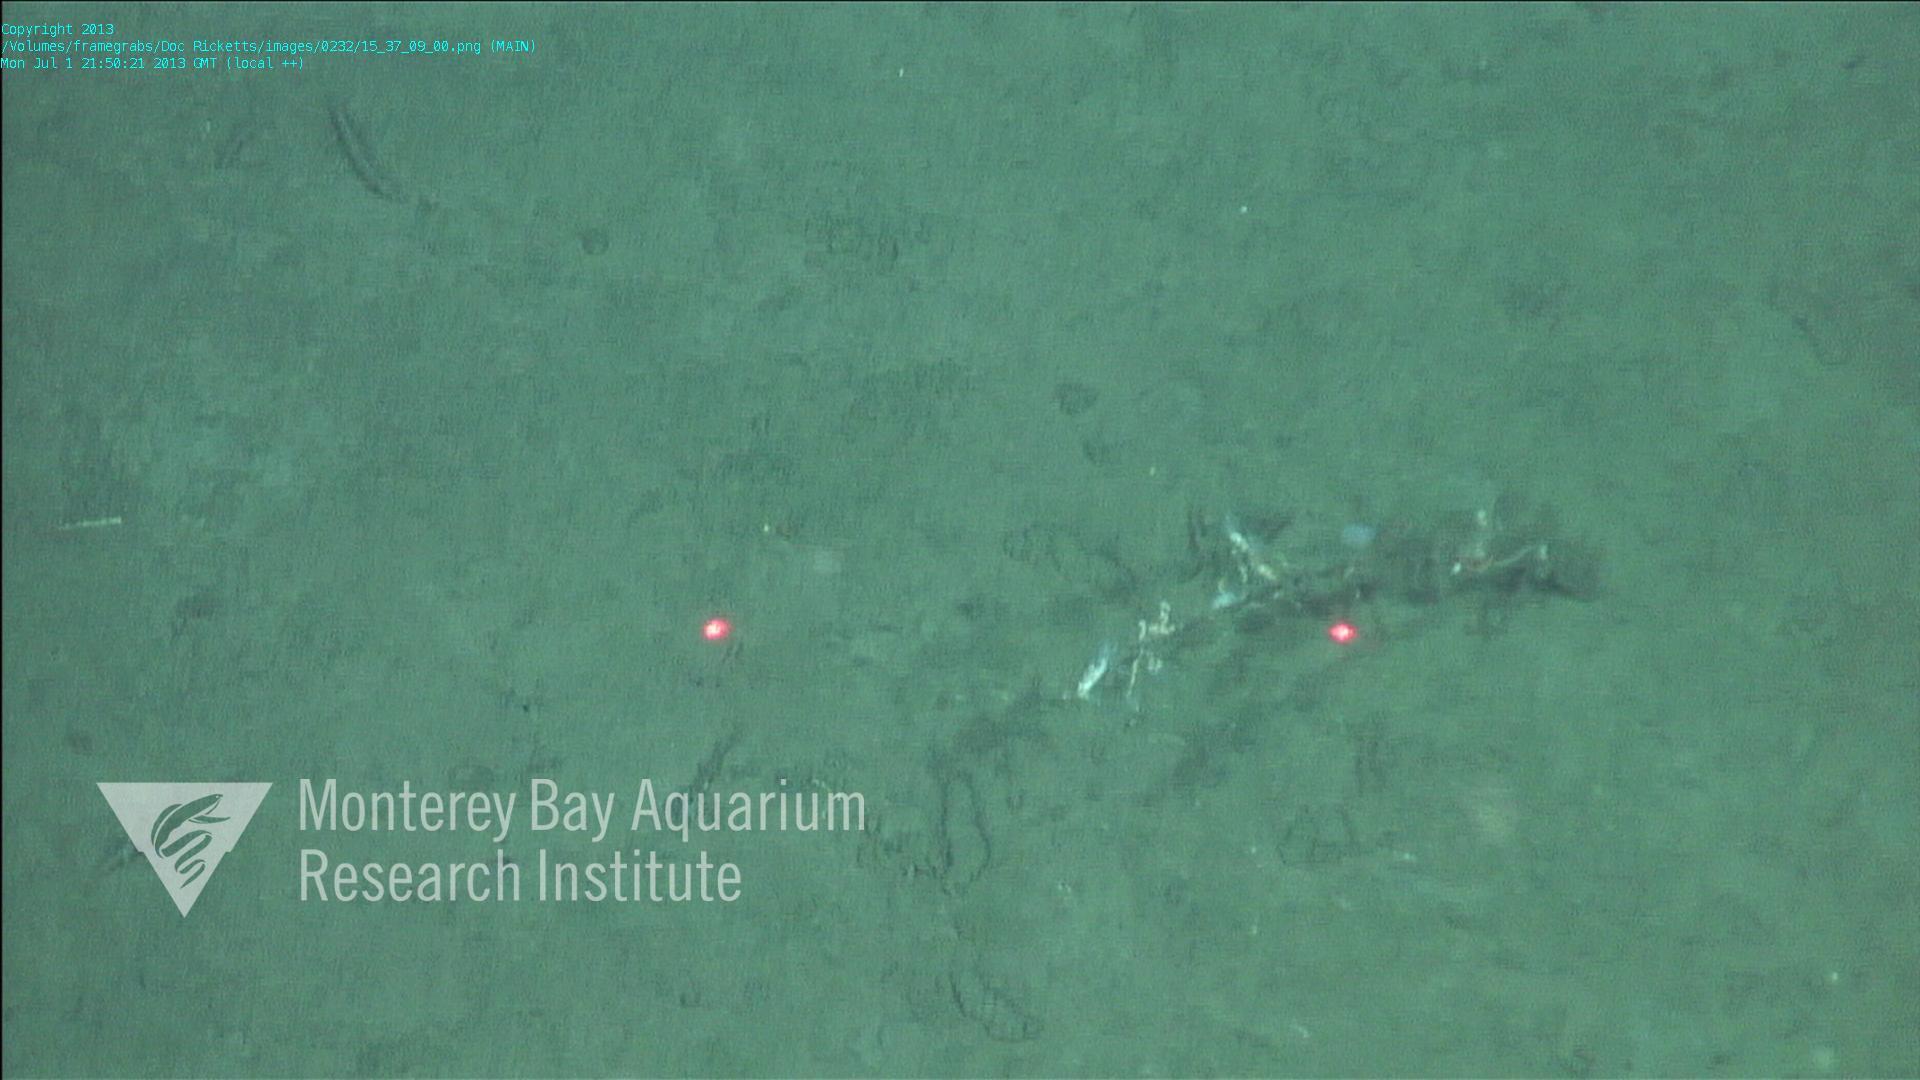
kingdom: Animalia
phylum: Porifera
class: Hexactinellida
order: Lyssacinosida
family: Rossellidae
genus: Bathydorus
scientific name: Bathydorus spinosus
